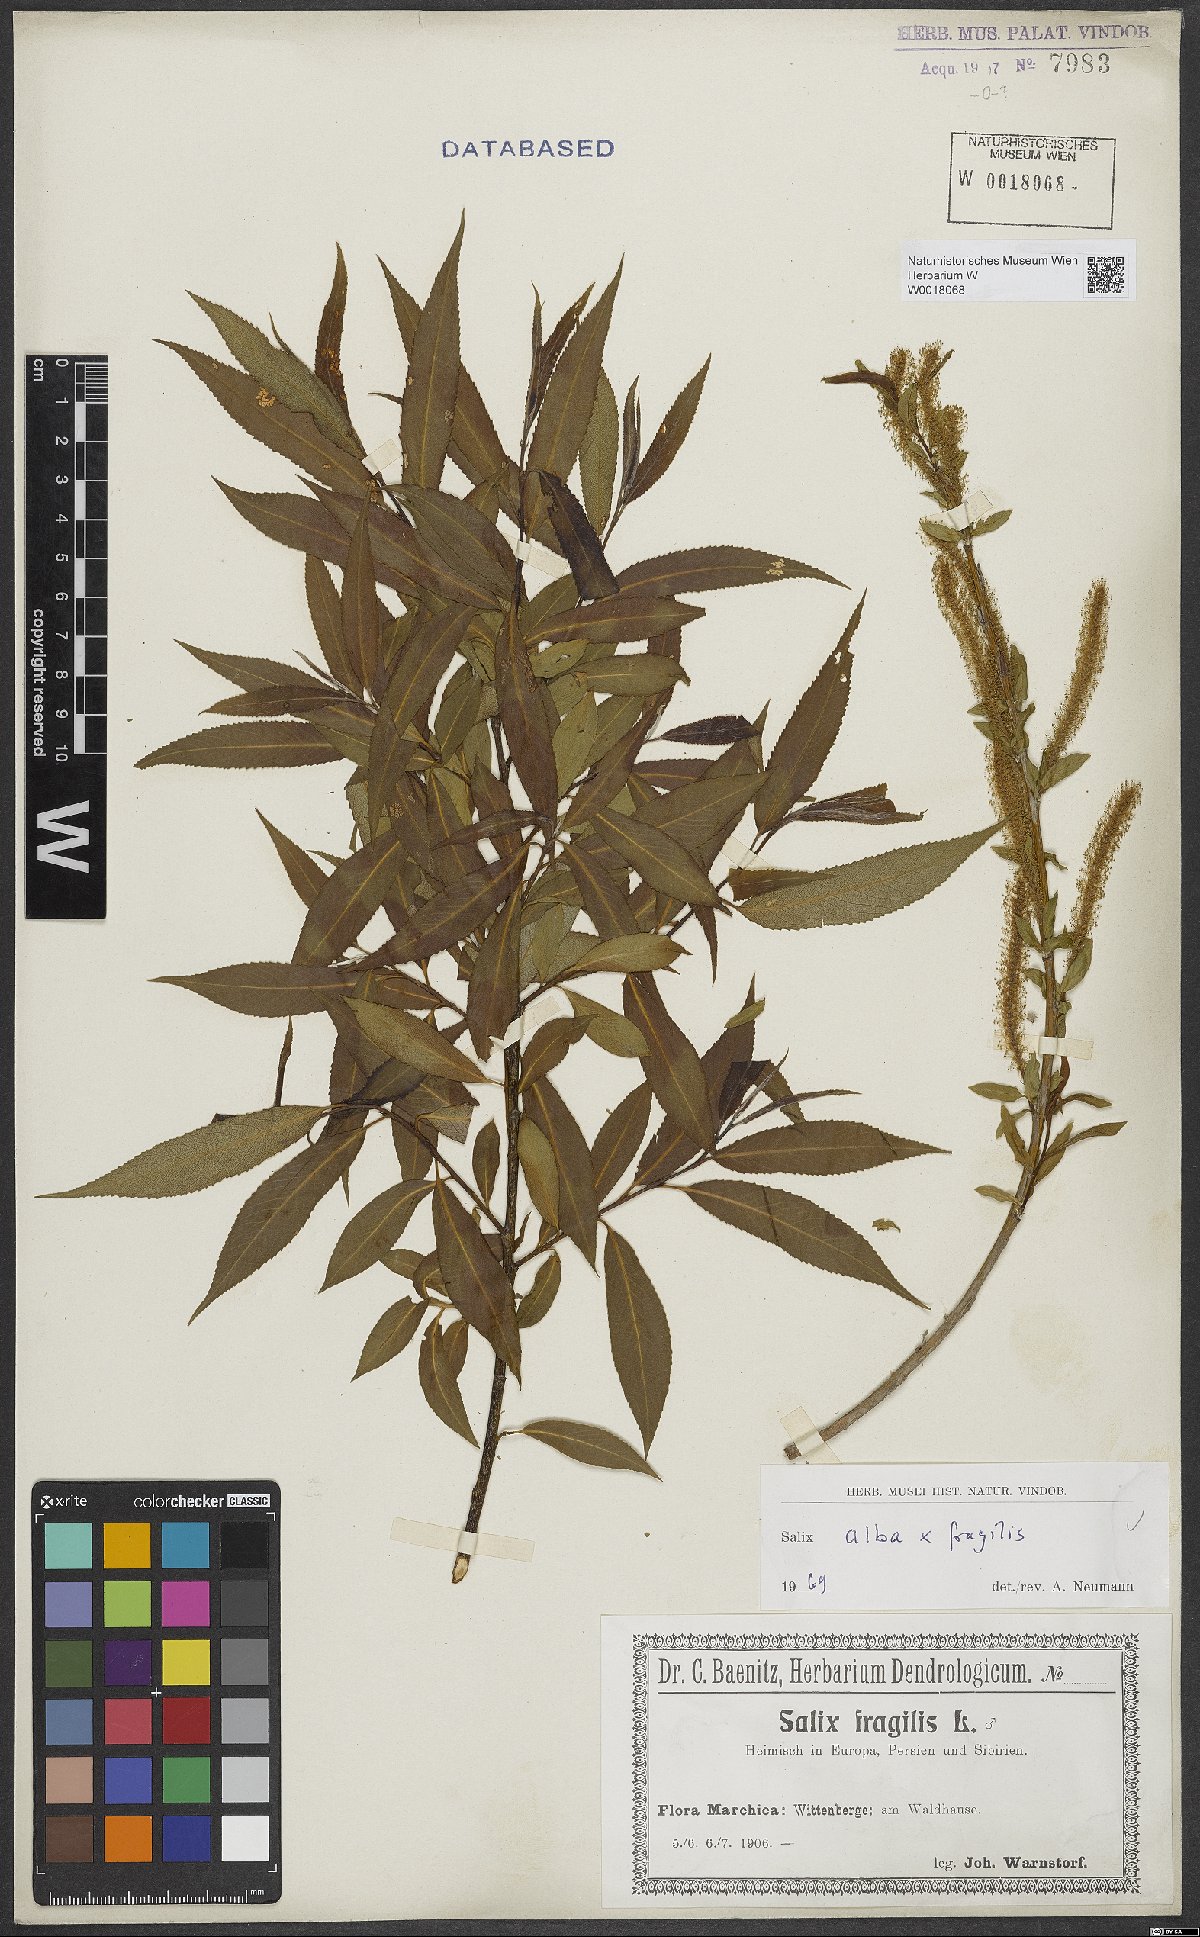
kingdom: Plantae
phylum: Tracheophyta
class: Magnoliopsida
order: Malpighiales
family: Salicaceae
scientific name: Salicaceae
